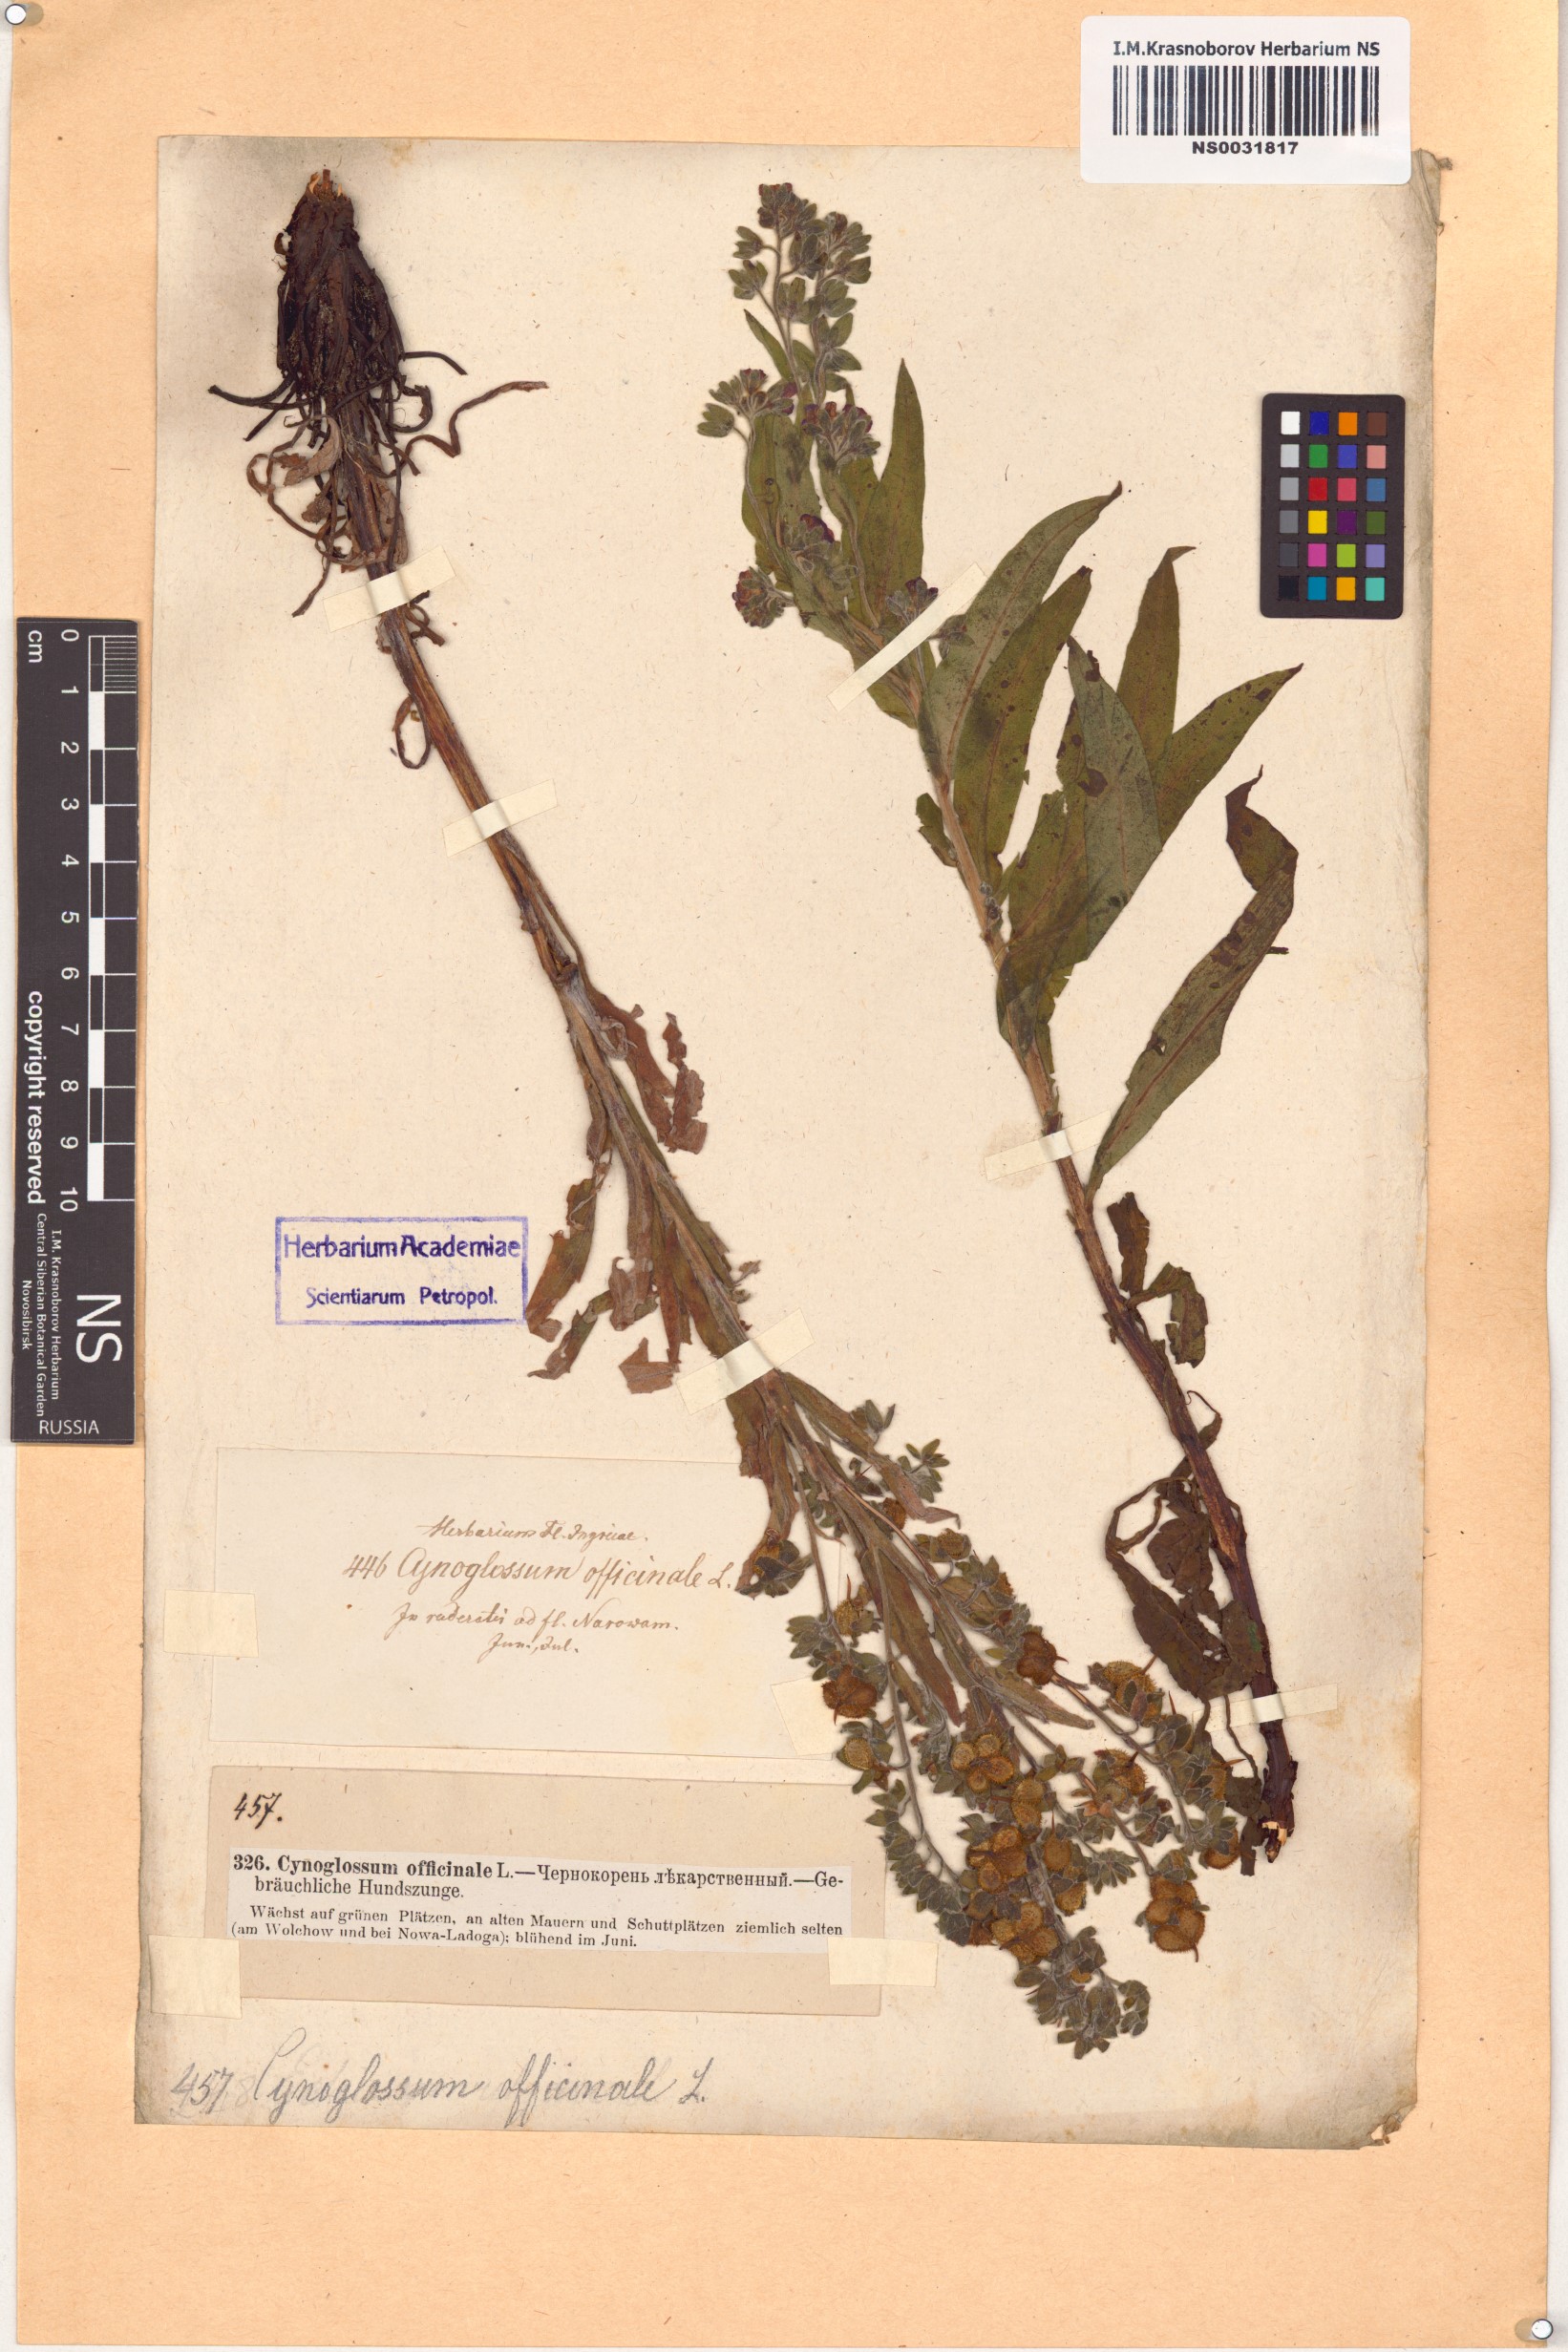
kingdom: Plantae
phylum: Tracheophyta
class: Magnoliopsida
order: Boraginales
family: Boraginaceae
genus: Cynoglossum
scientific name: Cynoglossum officinale
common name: Hound's-tongue
